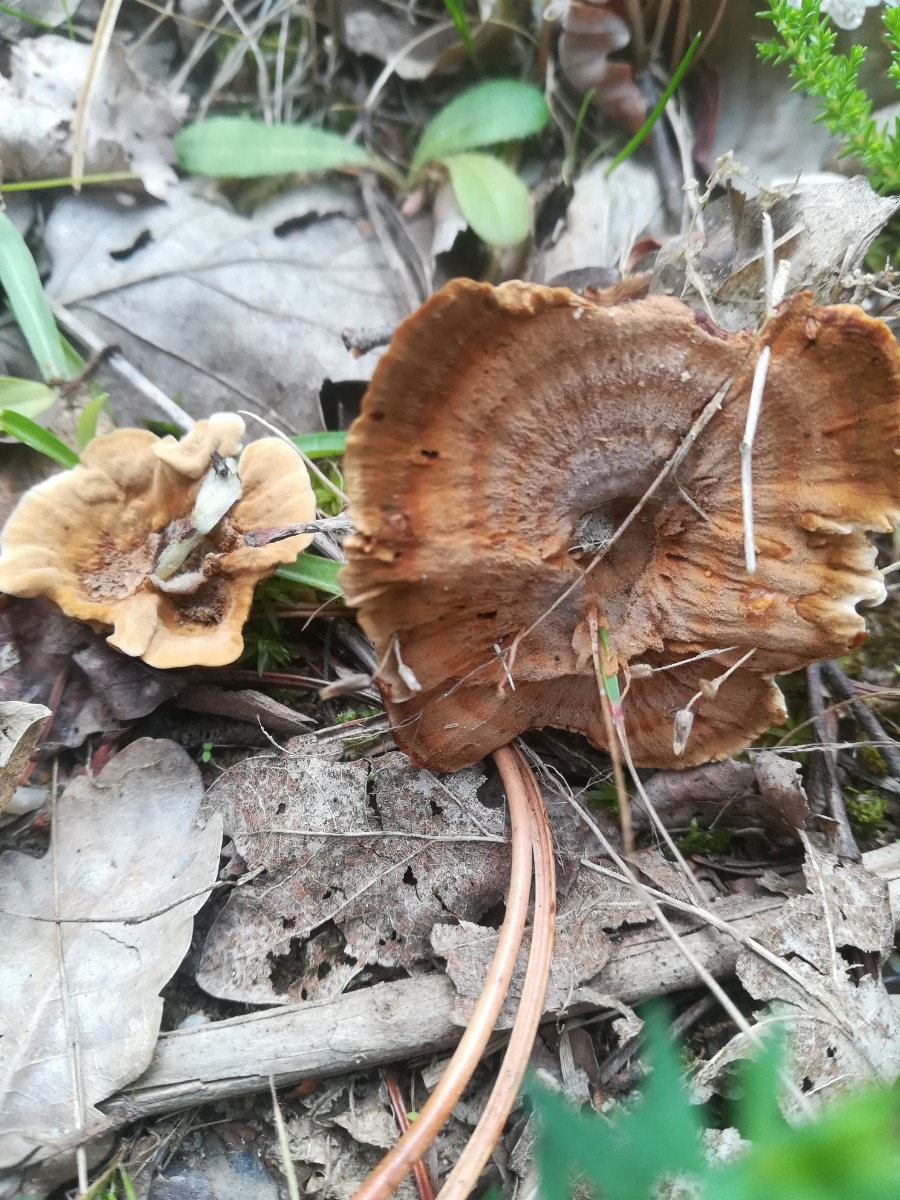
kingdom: Fungi
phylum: Basidiomycota
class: Agaricomycetes
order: Hymenochaetales
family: Hymenochaetaceae
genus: Coltricia
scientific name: Coltricia perennis
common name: almindelig sandporesvamp
